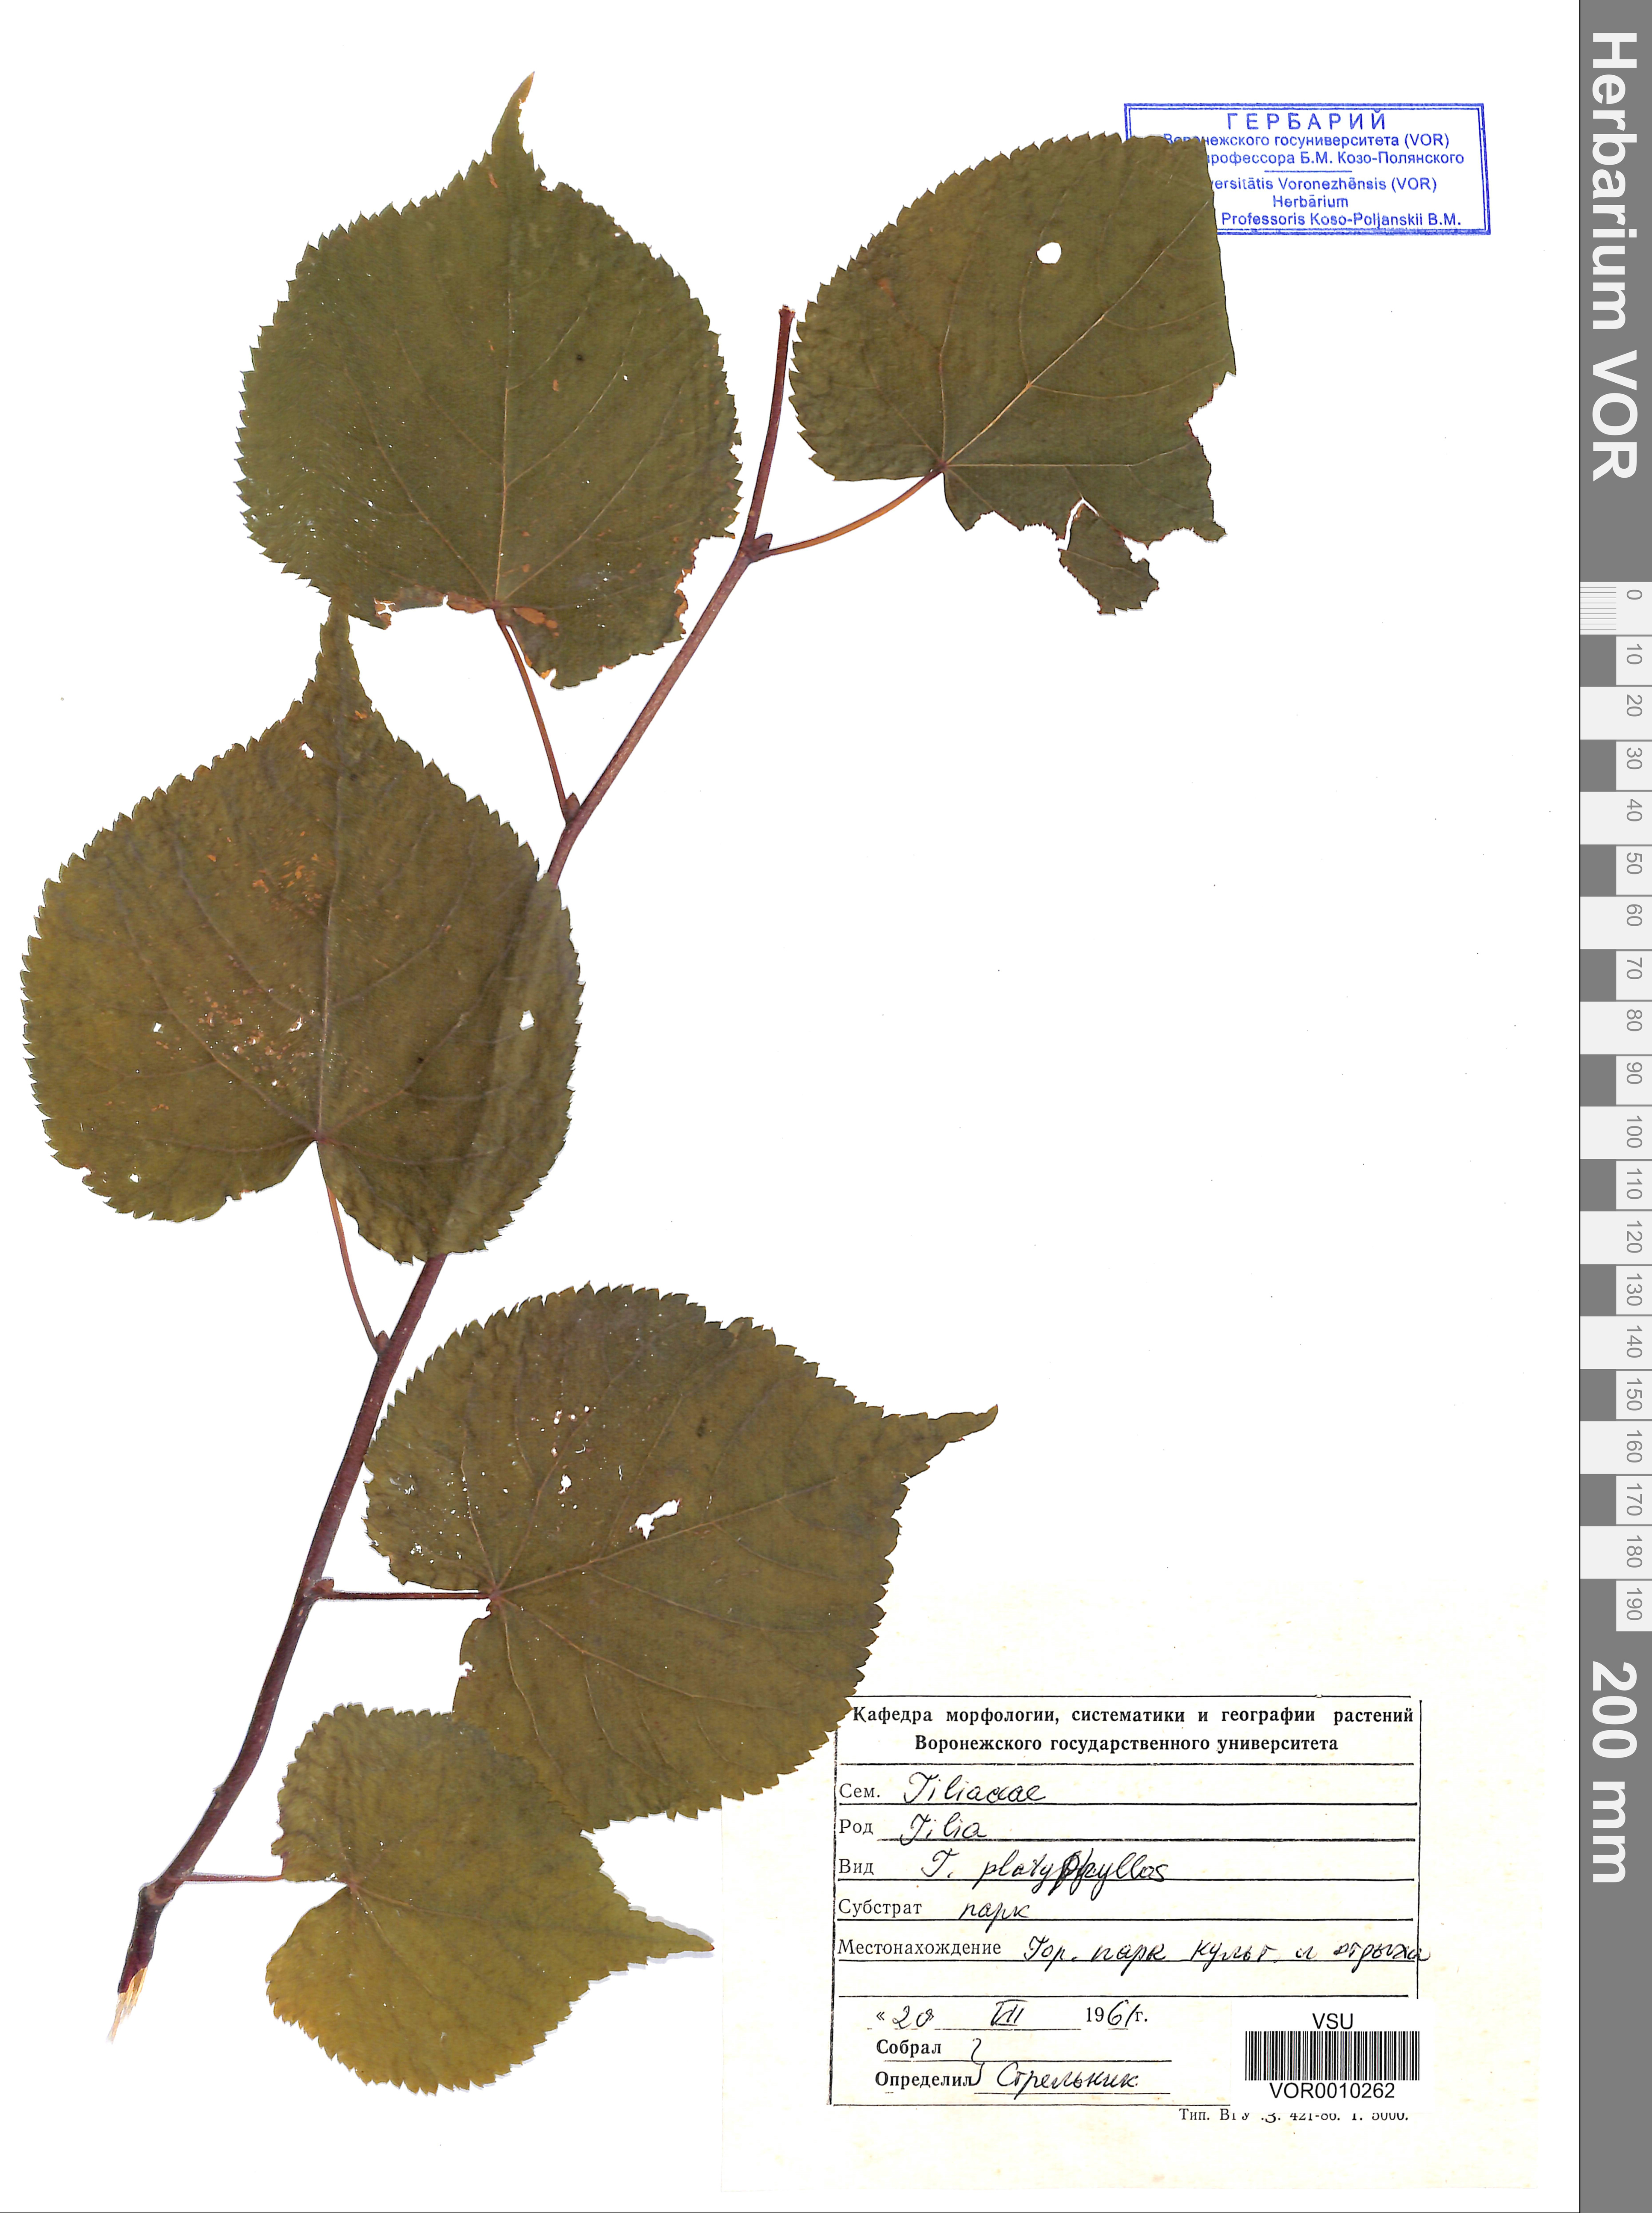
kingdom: Plantae
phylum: Tracheophyta
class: Magnoliopsida
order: Malvales
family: Malvaceae
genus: Tilia
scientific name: Tilia platyphyllos
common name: Large-leaved lime
